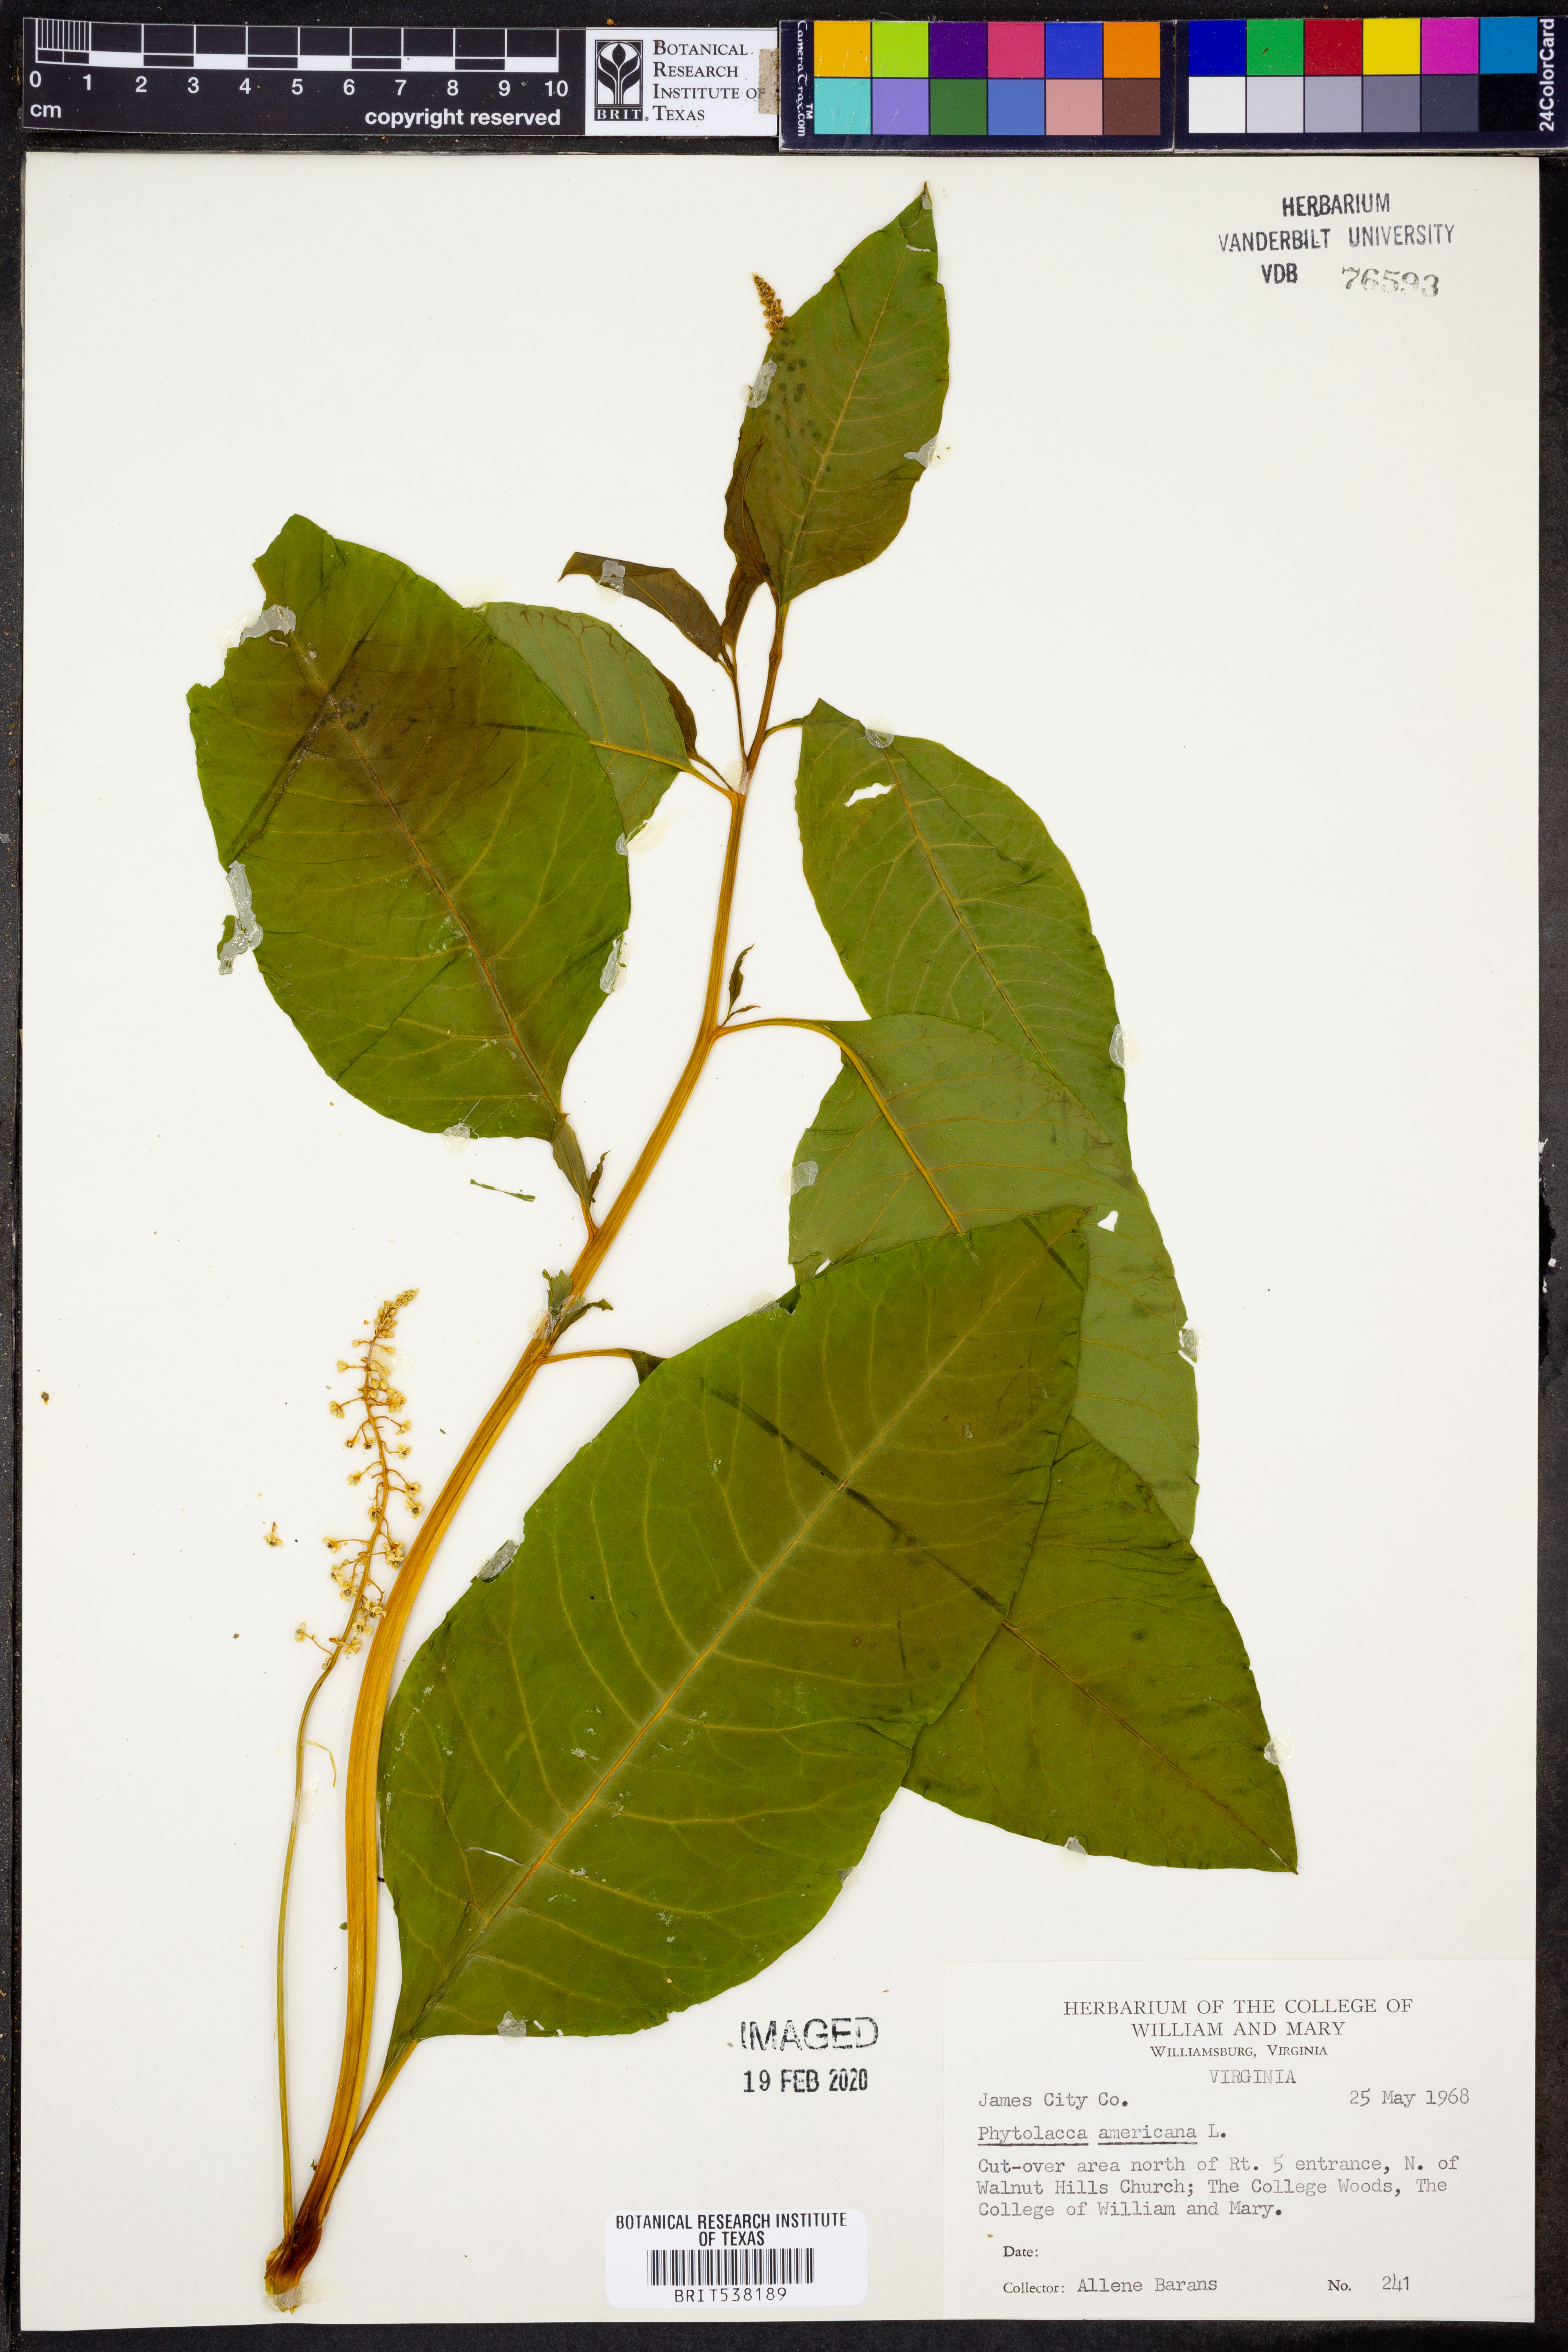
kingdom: Plantae
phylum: Tracheophyta
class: Magnoliopsida
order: Caryophyllales
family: Phytolaccaceae
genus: Phytolacca
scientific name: Phytolacca americana
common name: American pokeweed
